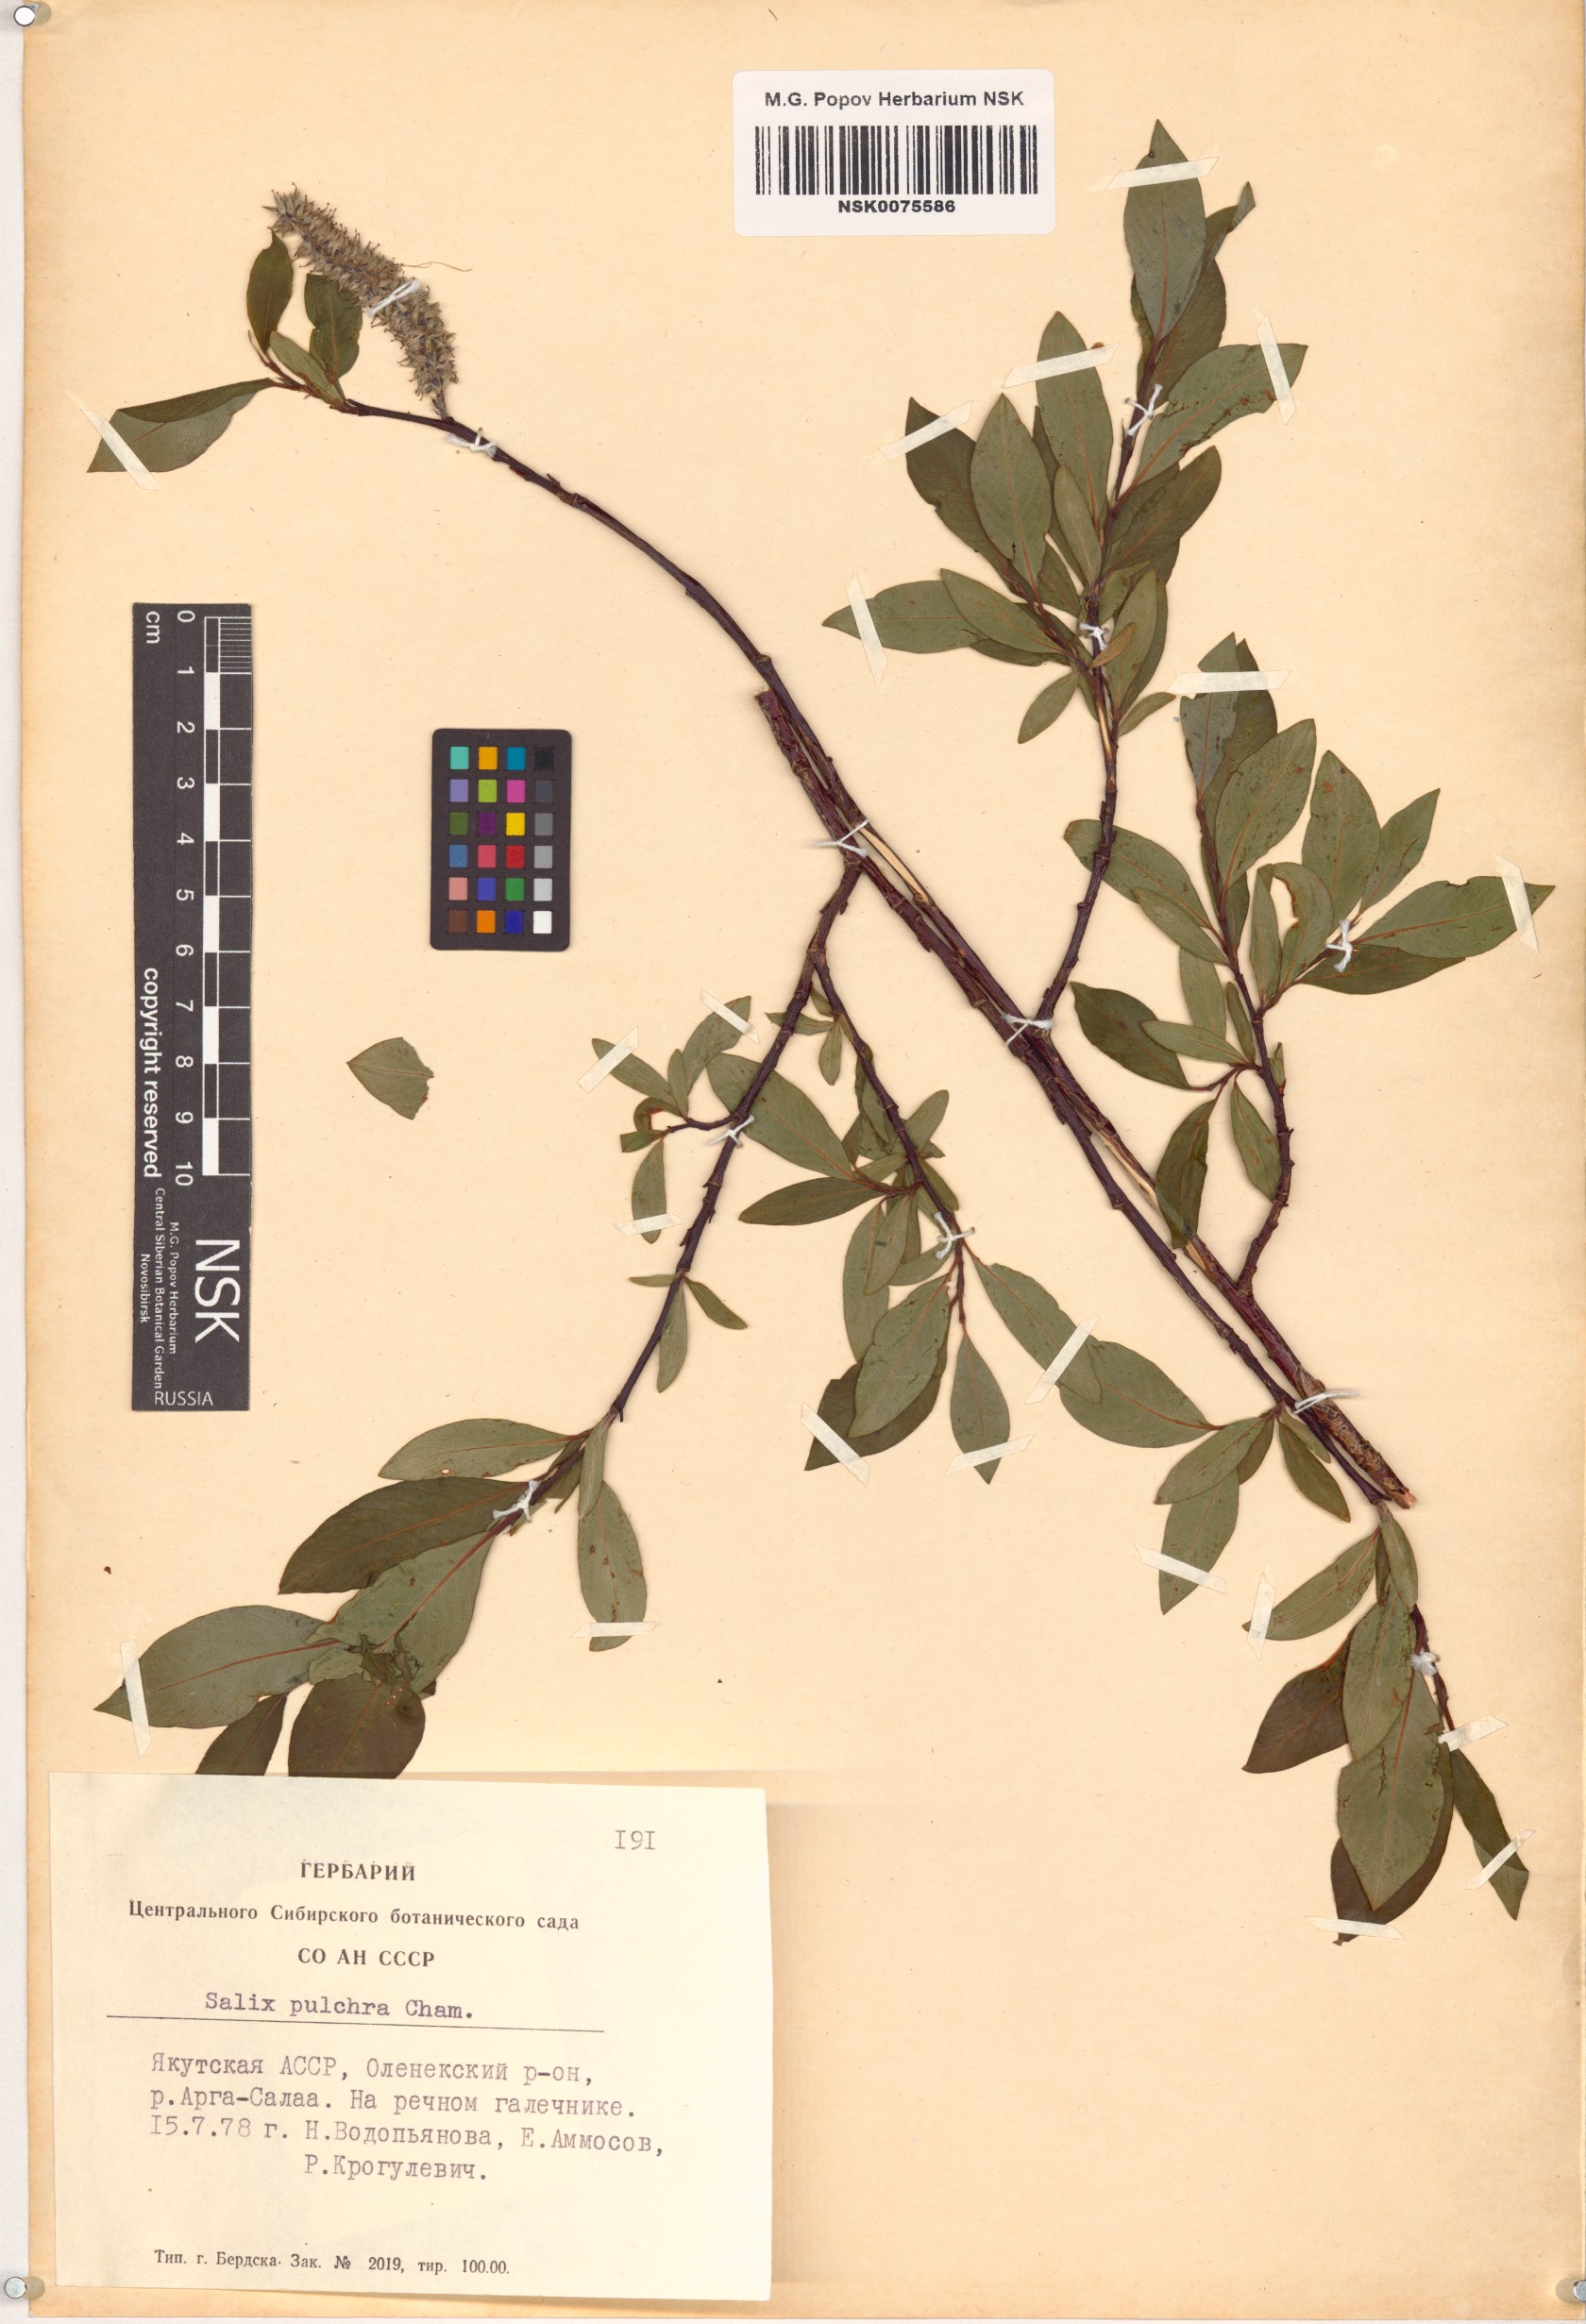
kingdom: Plantae
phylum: Tracheophyta
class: Magnoliopsida
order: Malpighiales
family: Salicaceae
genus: Salix
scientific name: Salix pulchra
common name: Diamond-leaved willow
